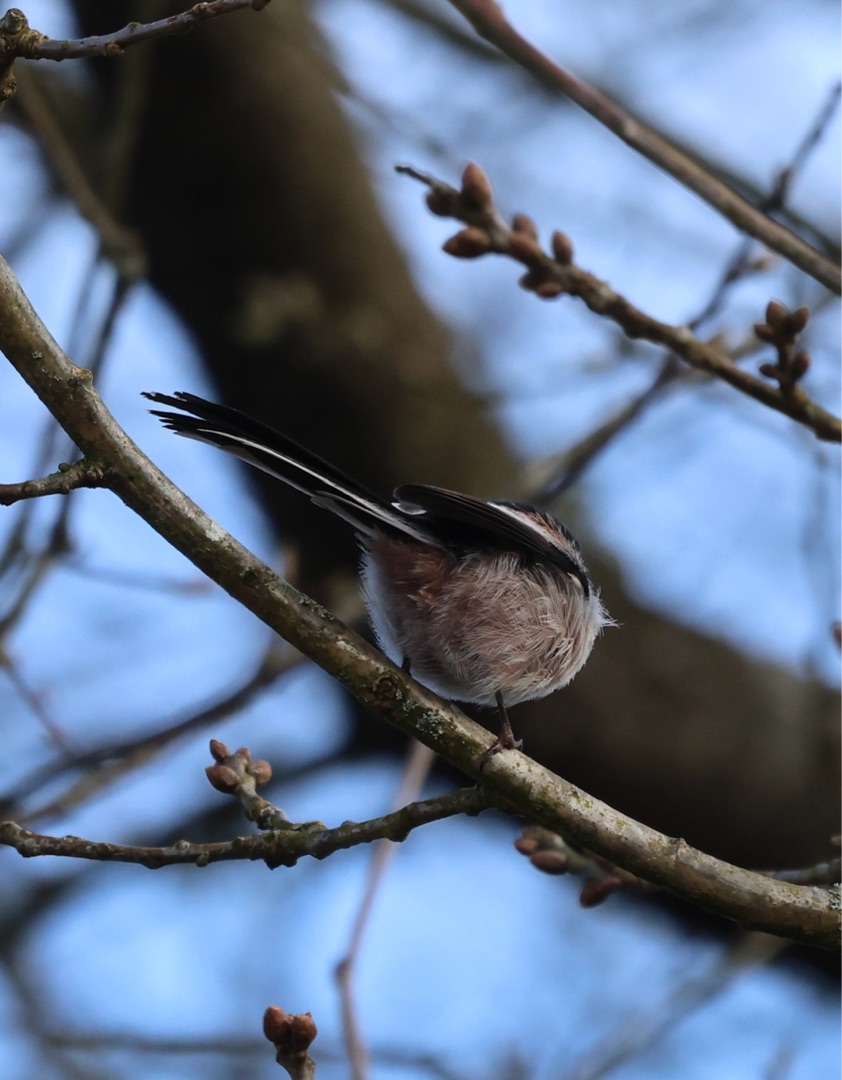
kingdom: Animalia
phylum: Chordata
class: Aves
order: Passeriformes
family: Aegithalidae
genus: Aegithalos
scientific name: Aegithalos caudatus
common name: Halemejse
